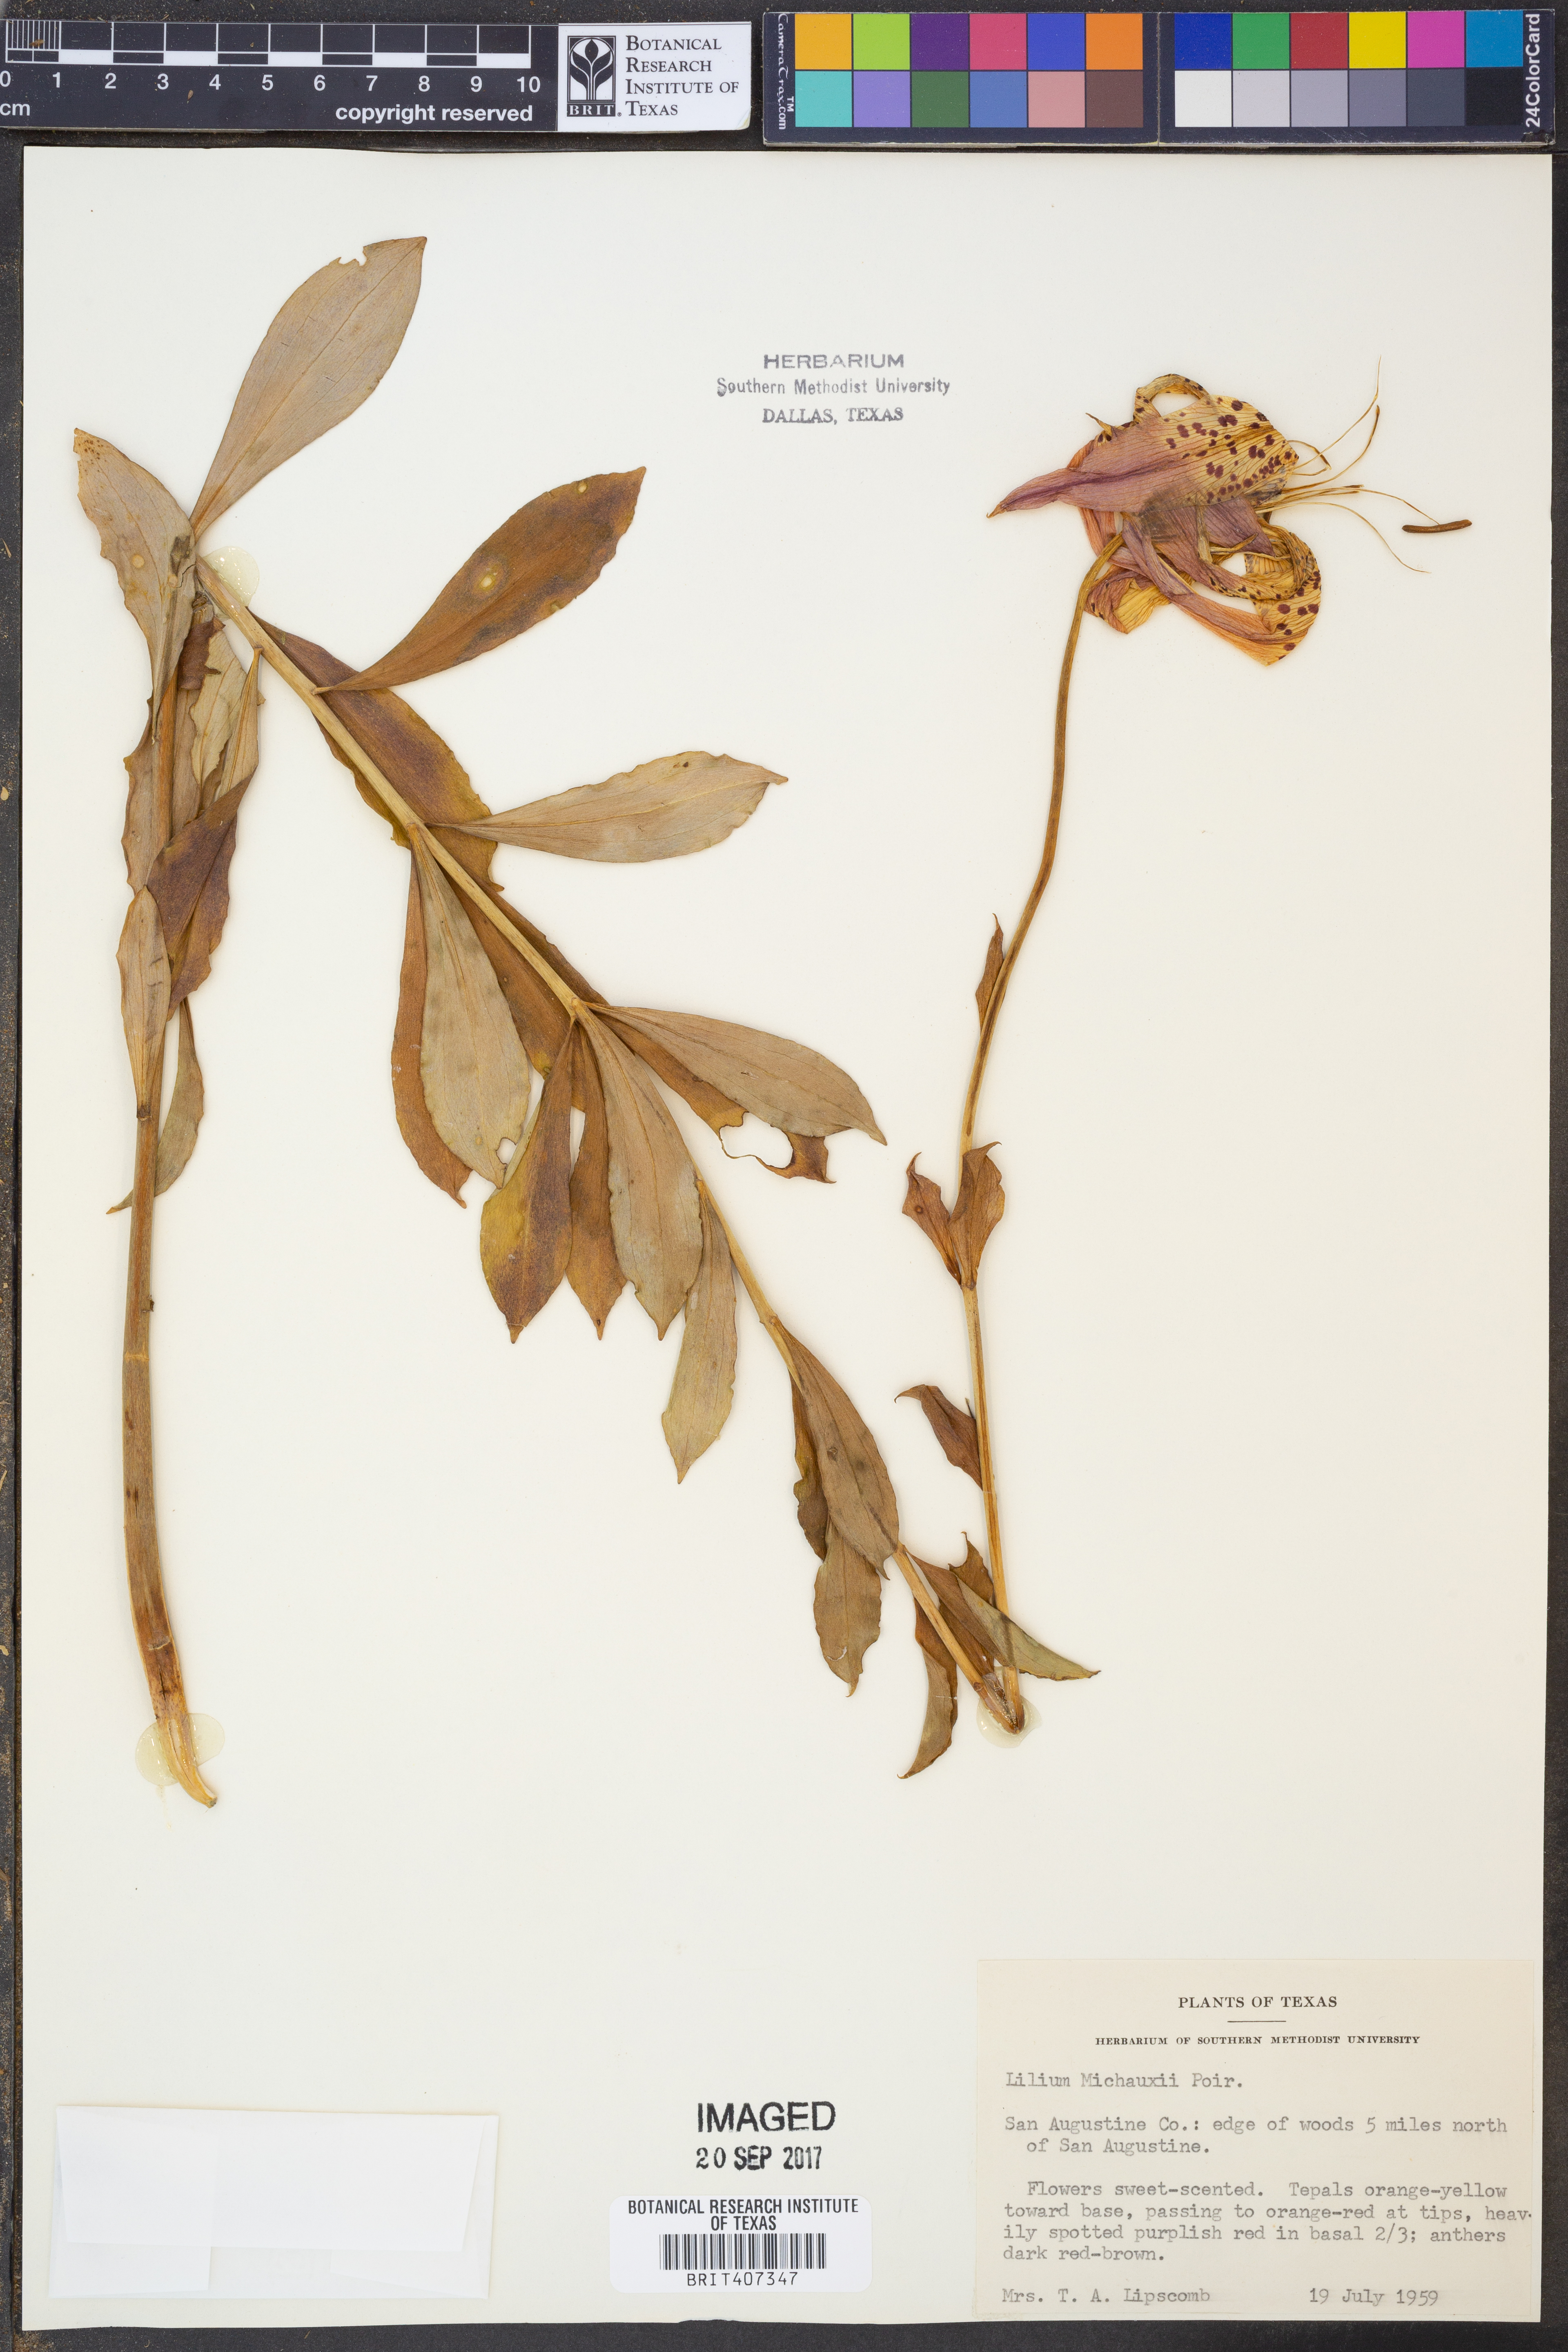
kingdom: Plantae
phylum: Tracheophyta
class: Liliopsida
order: Liliales
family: Liliaceae
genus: Lilium
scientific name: Lilium michauxii
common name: Carolina lily
